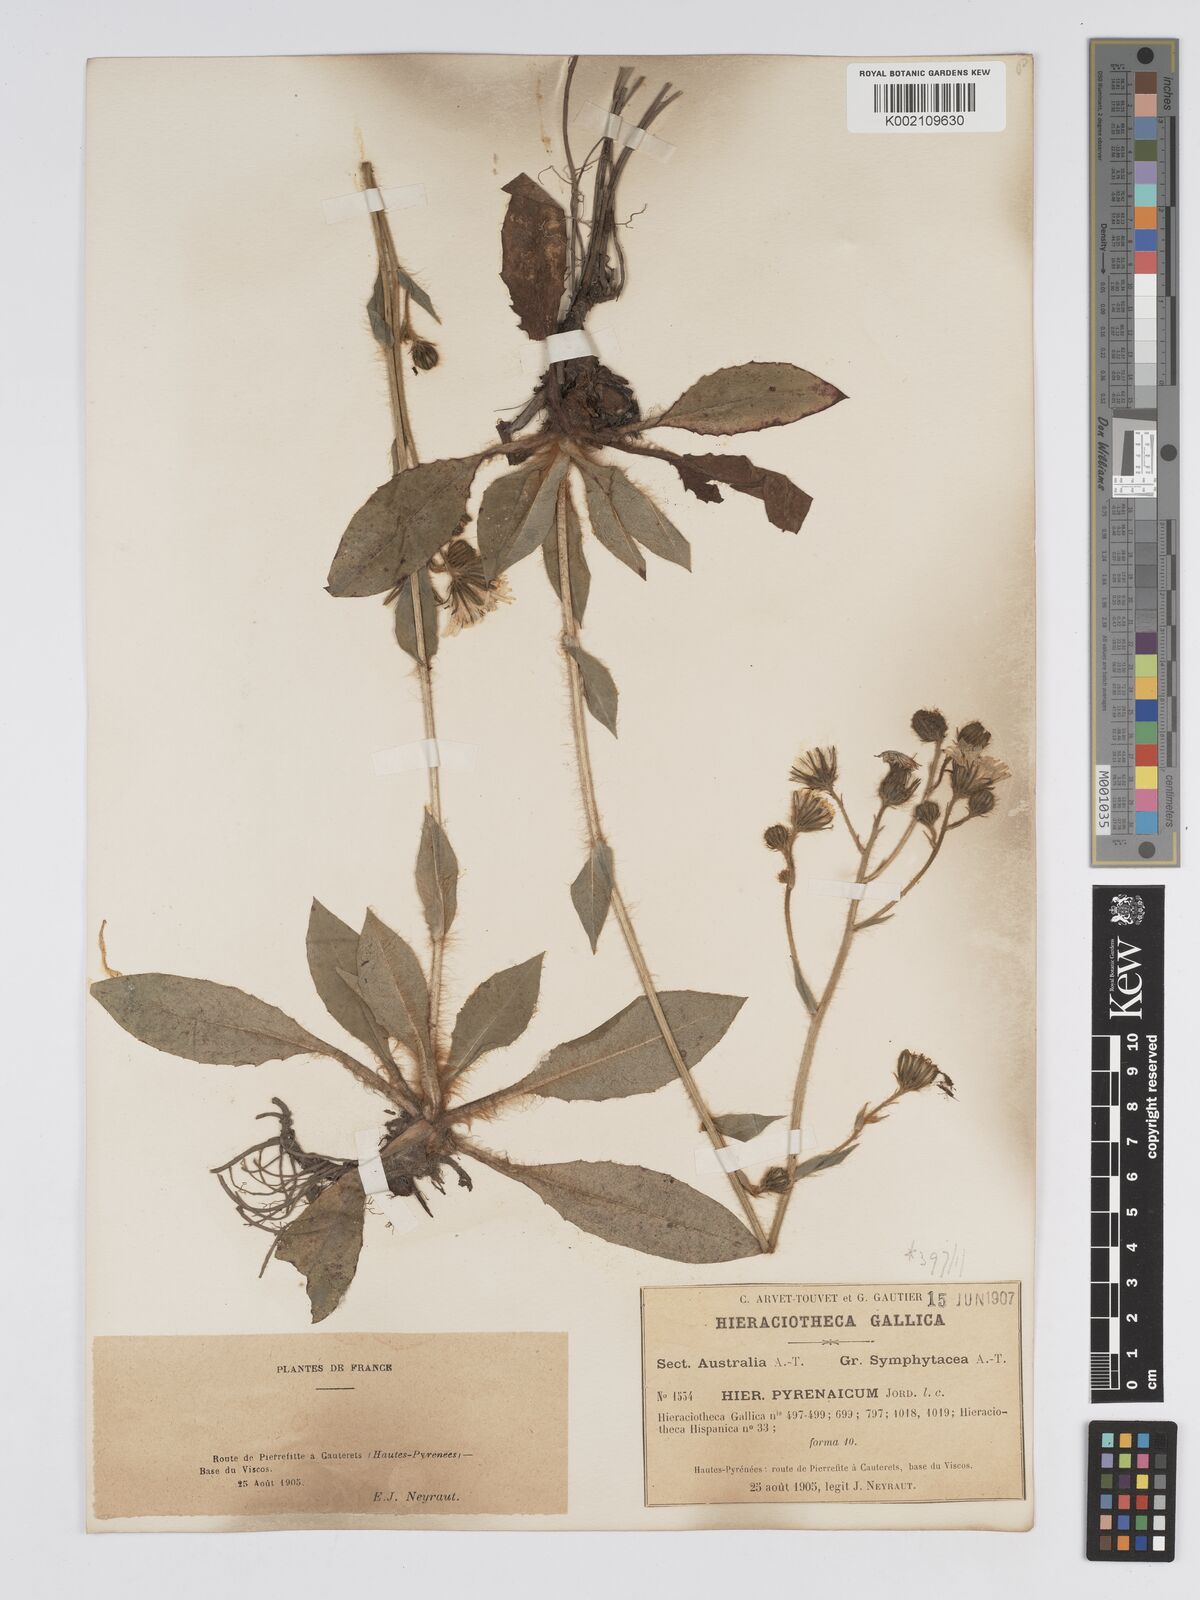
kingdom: Plantae
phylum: Tracheophyta
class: Magnoliopsida
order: Asterales
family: Asteraceae
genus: Hieracium
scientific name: Hieracium nobile
